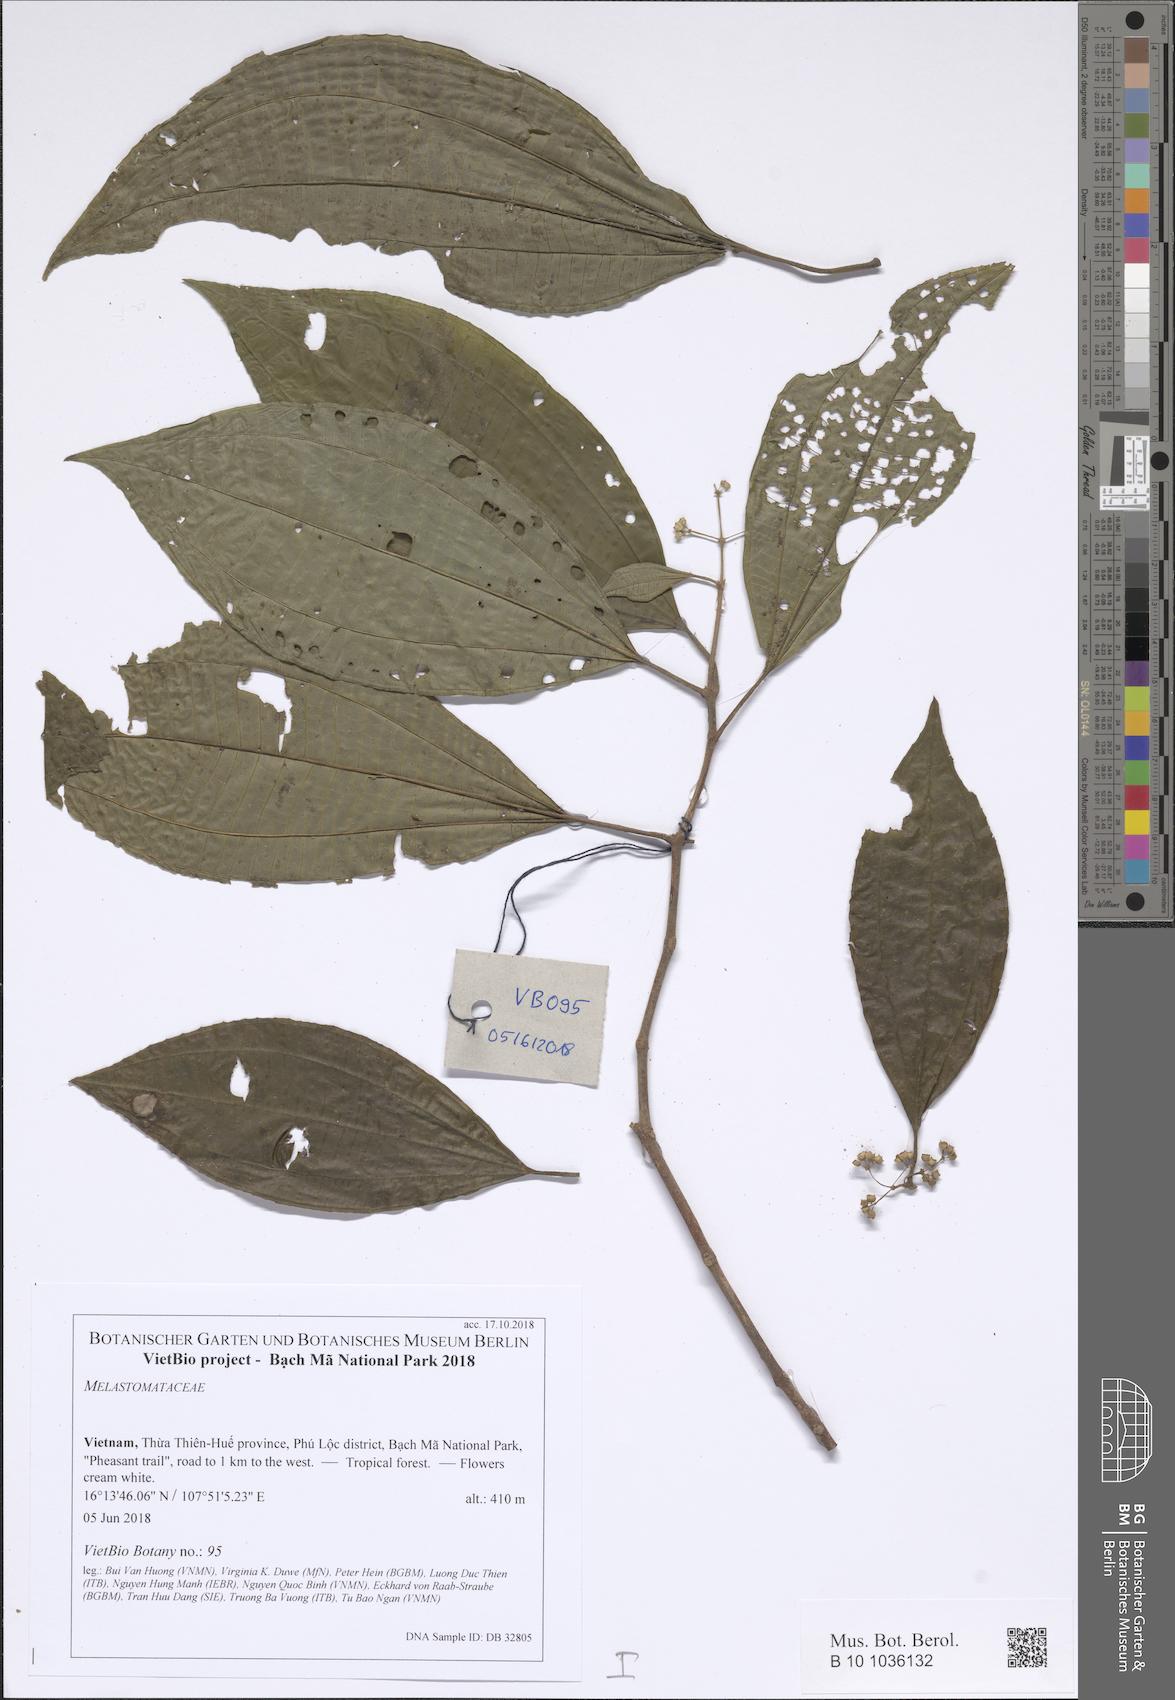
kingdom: Plantae
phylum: Tracheophyta
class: Magnoliopsida
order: Myrtales
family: Melastomataceae
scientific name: Melastomataceae
